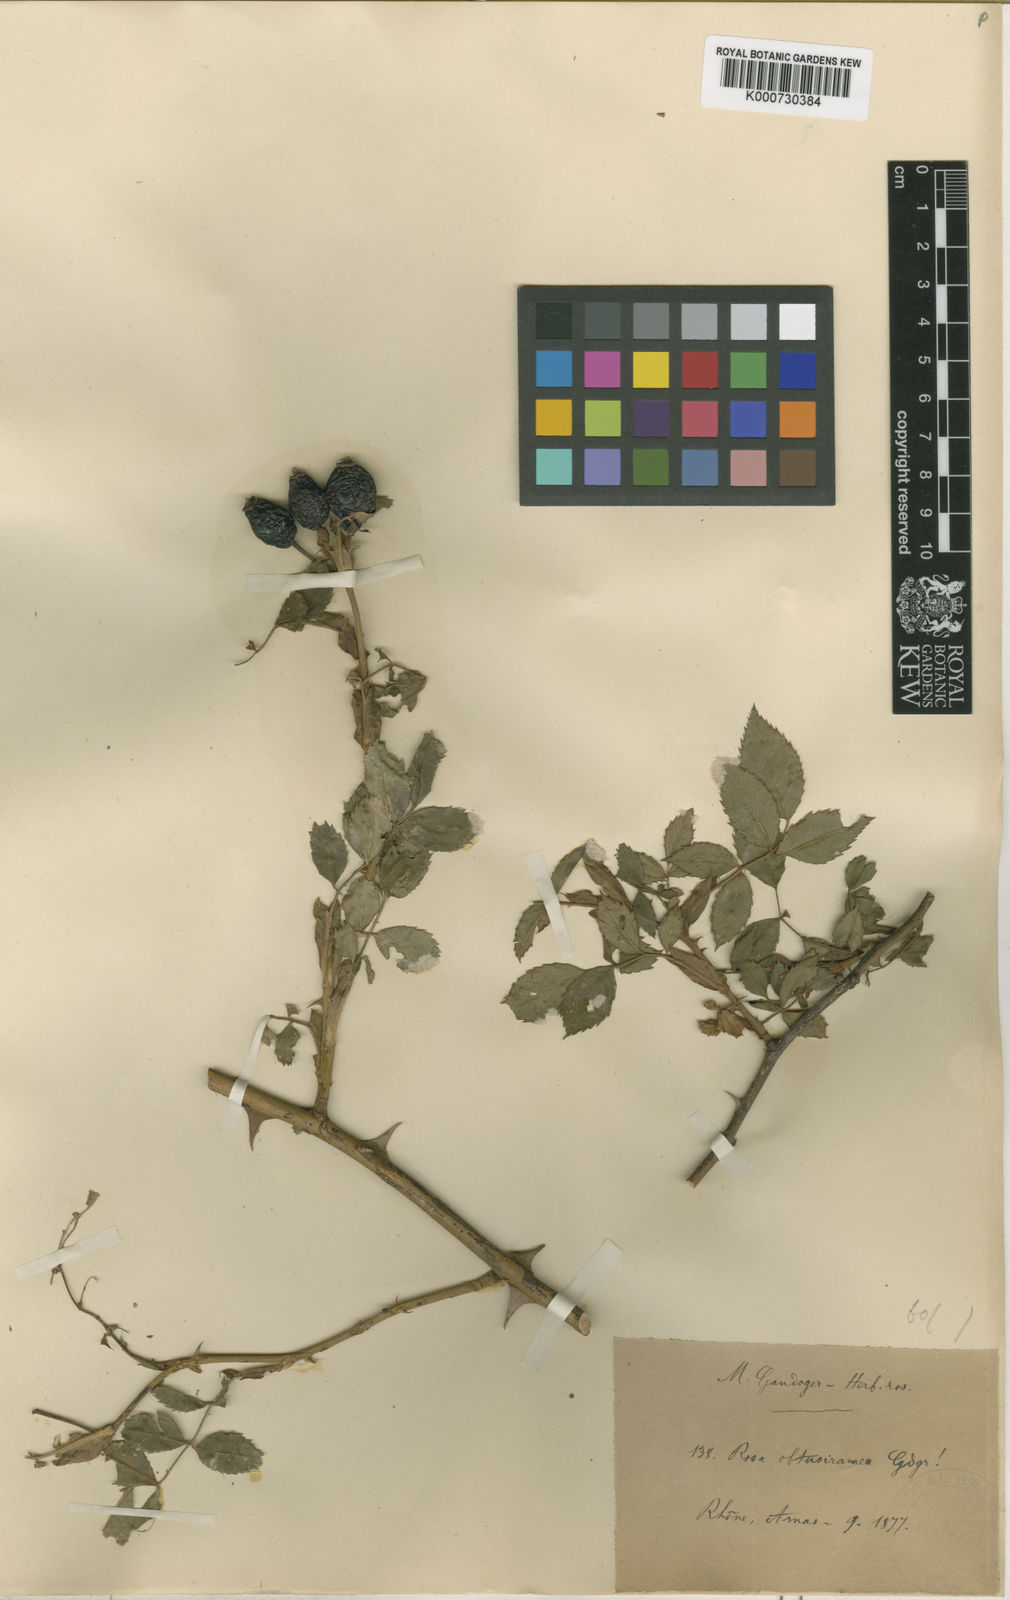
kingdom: Plantae
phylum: Tracheophyta
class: Magnoliopsida
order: Rosales
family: Rosaceae
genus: Rosa
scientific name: Rosa canina
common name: Dog rose
